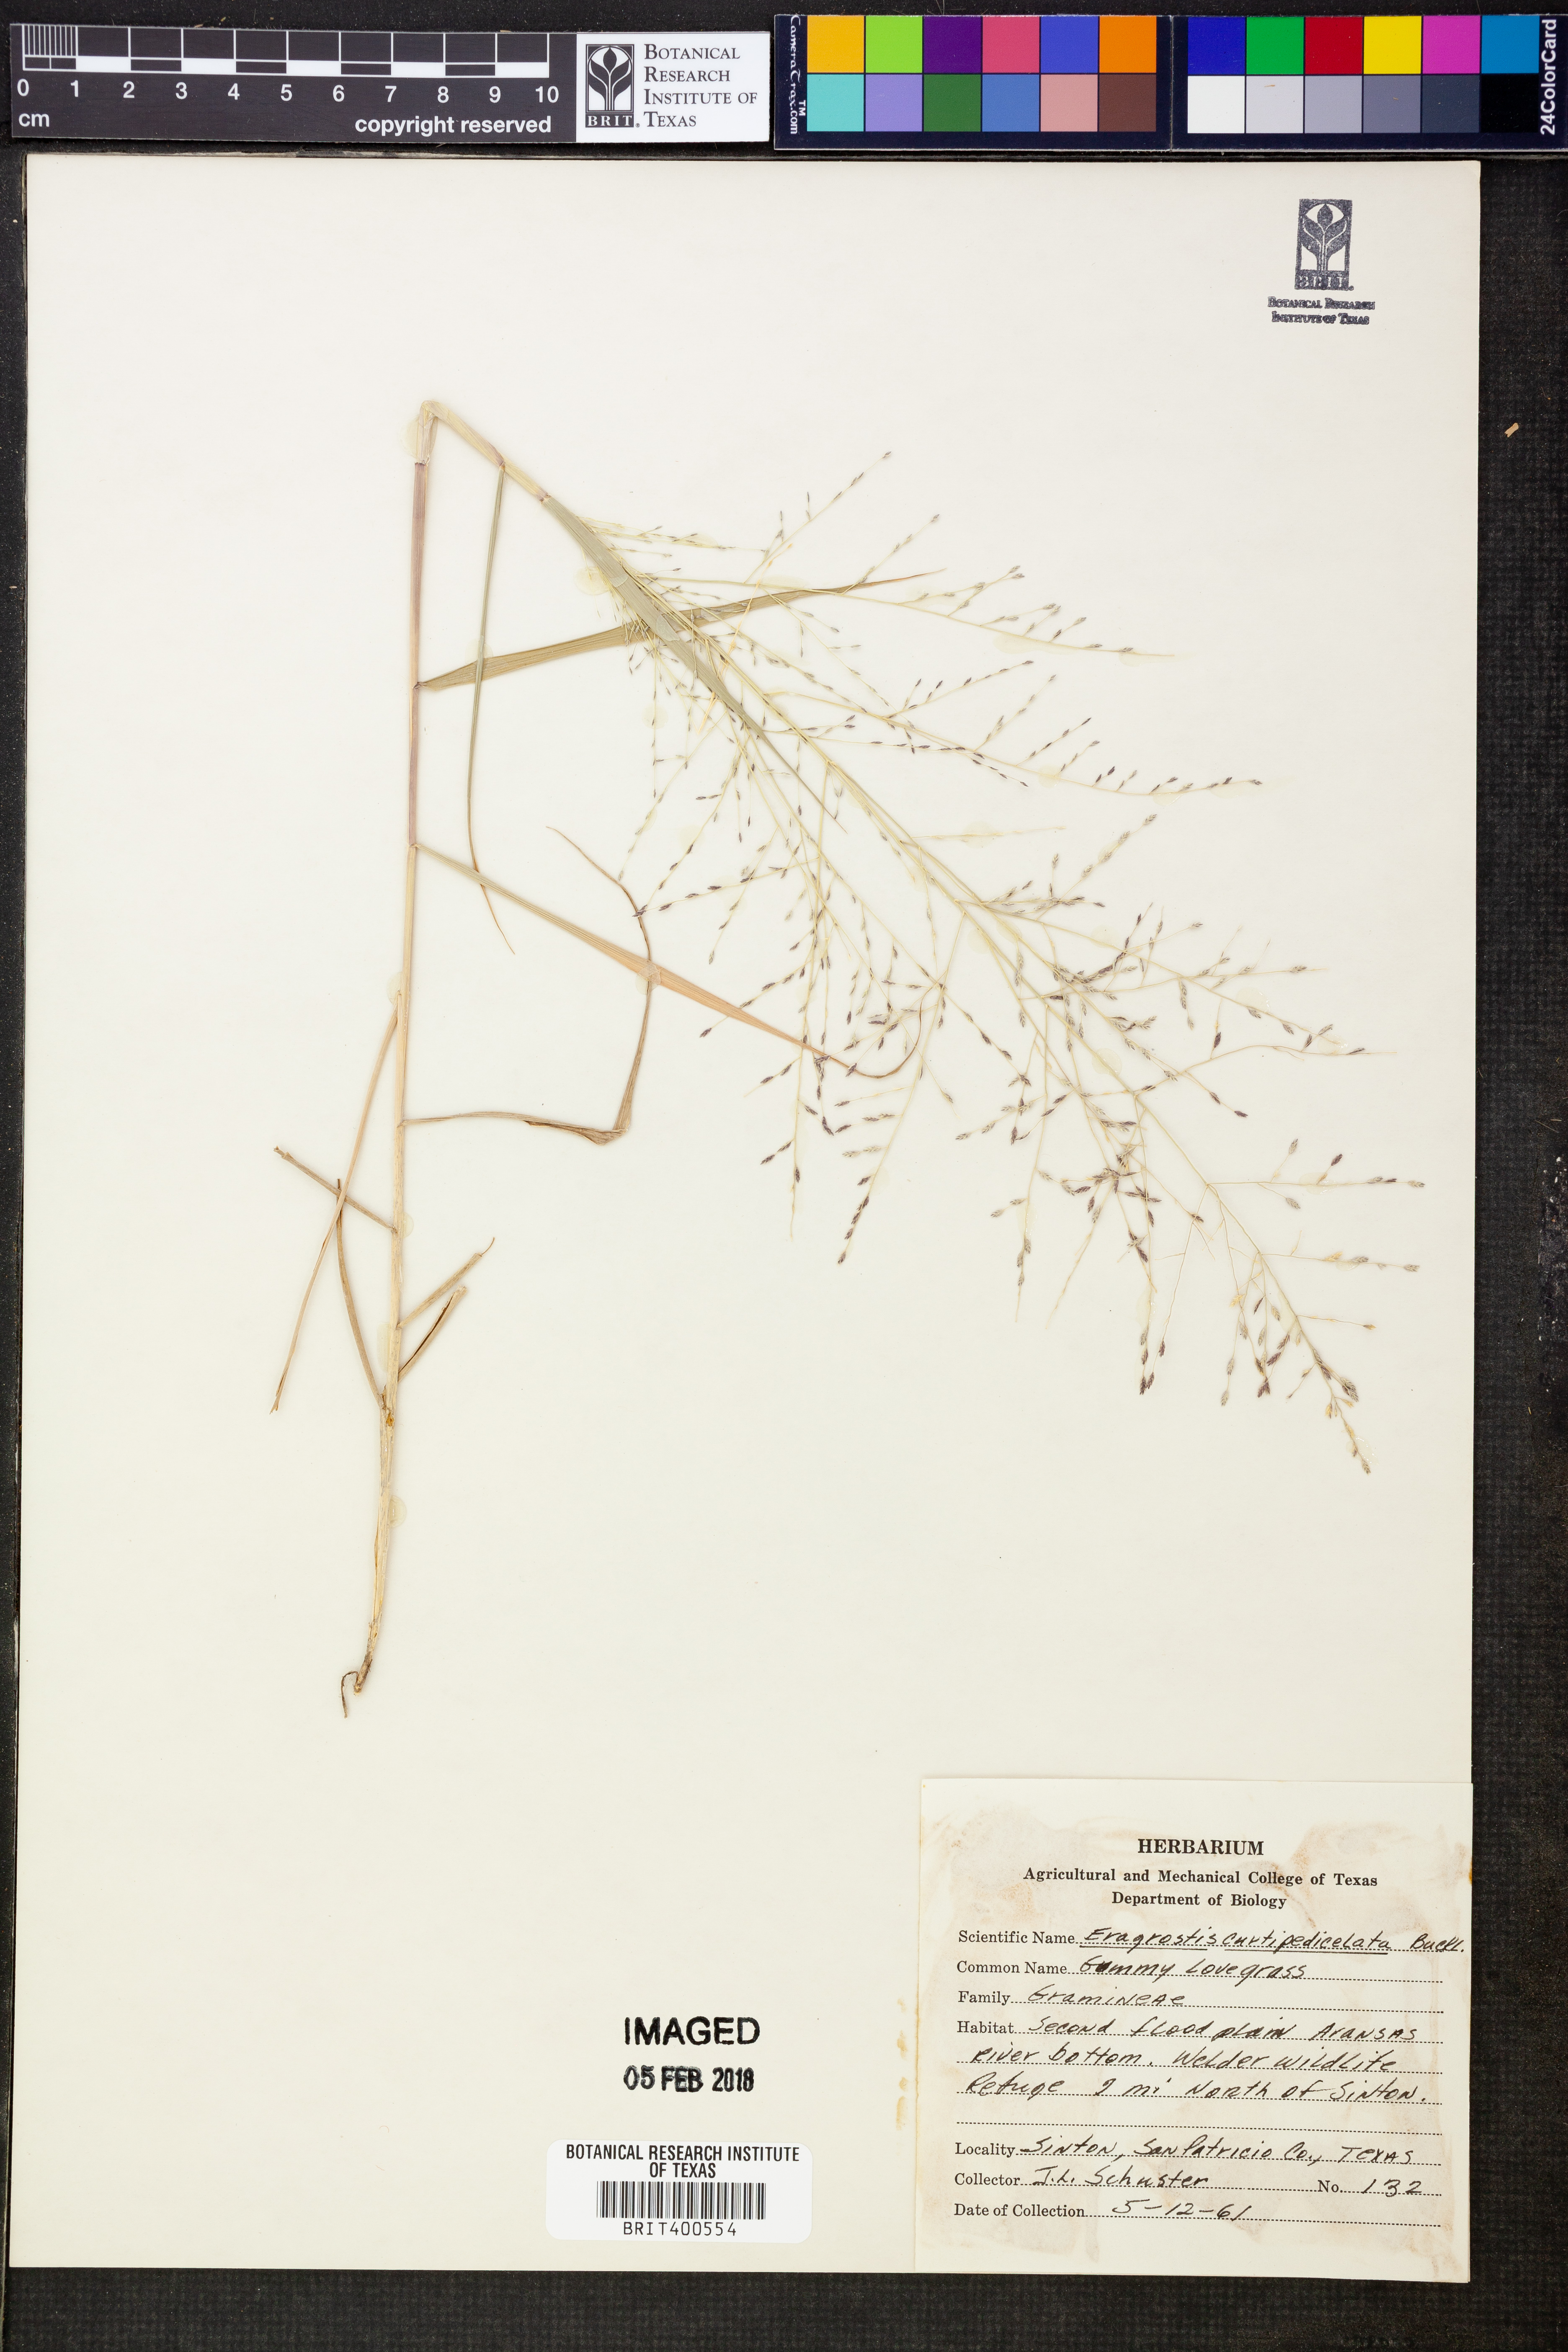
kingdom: Plantae
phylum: Tracheophyta
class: Liliopsida
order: Poales
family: Poaceae
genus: Eragrostis
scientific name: Eragrostis curtipedicellata
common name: Gummy love grass
